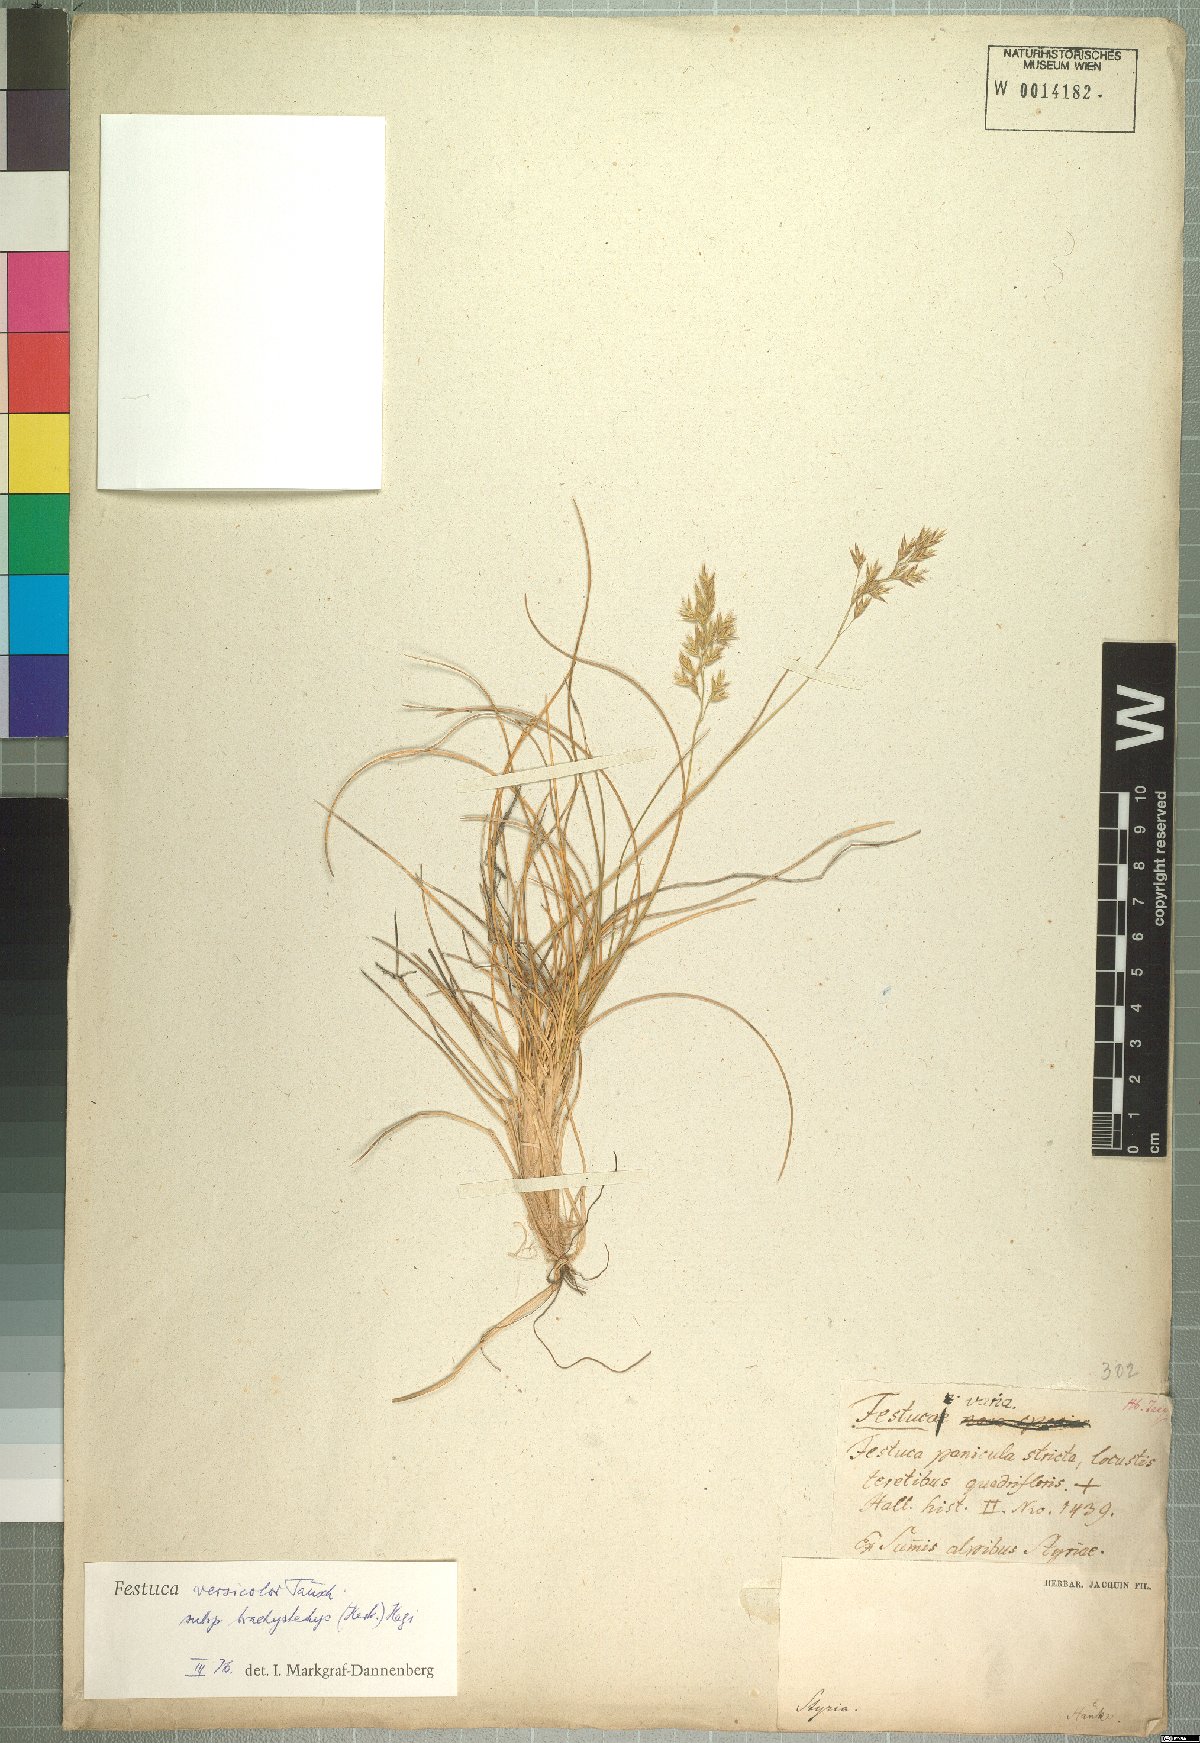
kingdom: Plantae
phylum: Tracheophyta
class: Liliopsida
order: Poales
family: Poaceae
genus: Festuca
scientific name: Festuca varia
